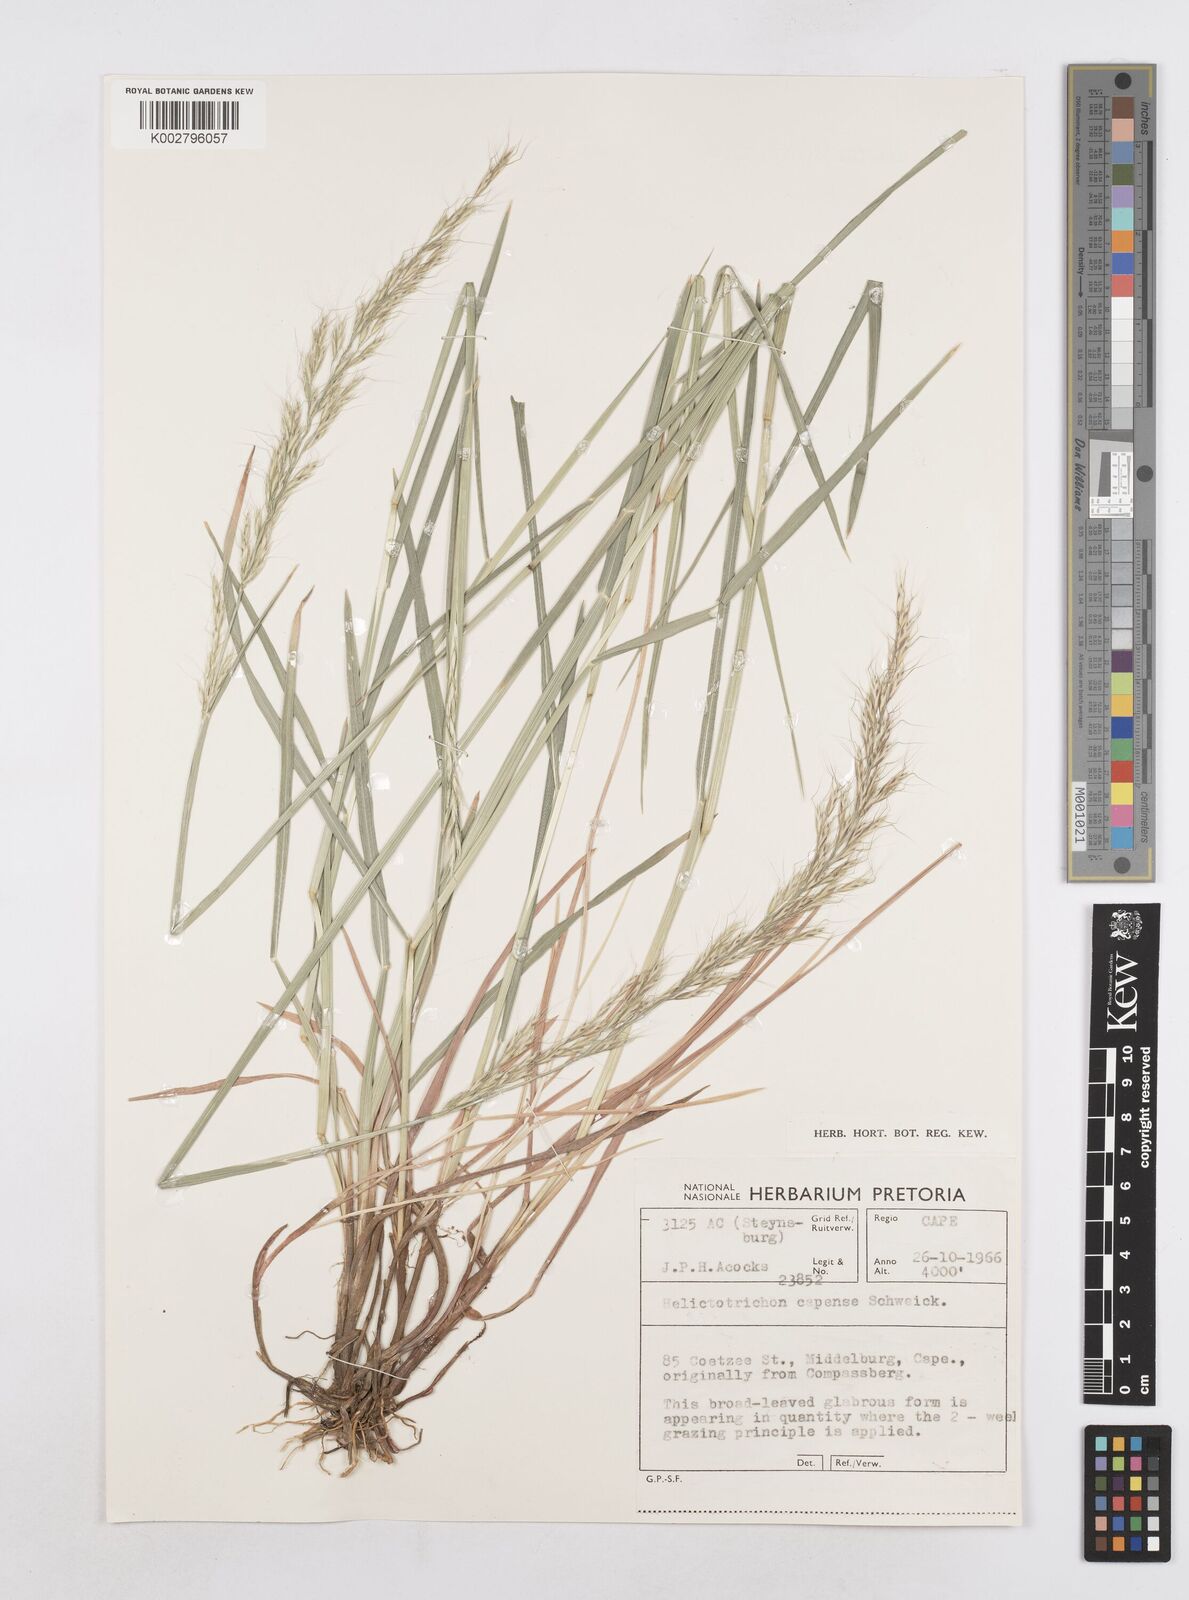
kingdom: Plantae
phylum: Tracheophyta
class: Liliopsida
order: Poales
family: Poaceae
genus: Trisetopsis
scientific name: Trisetopsis capensis
